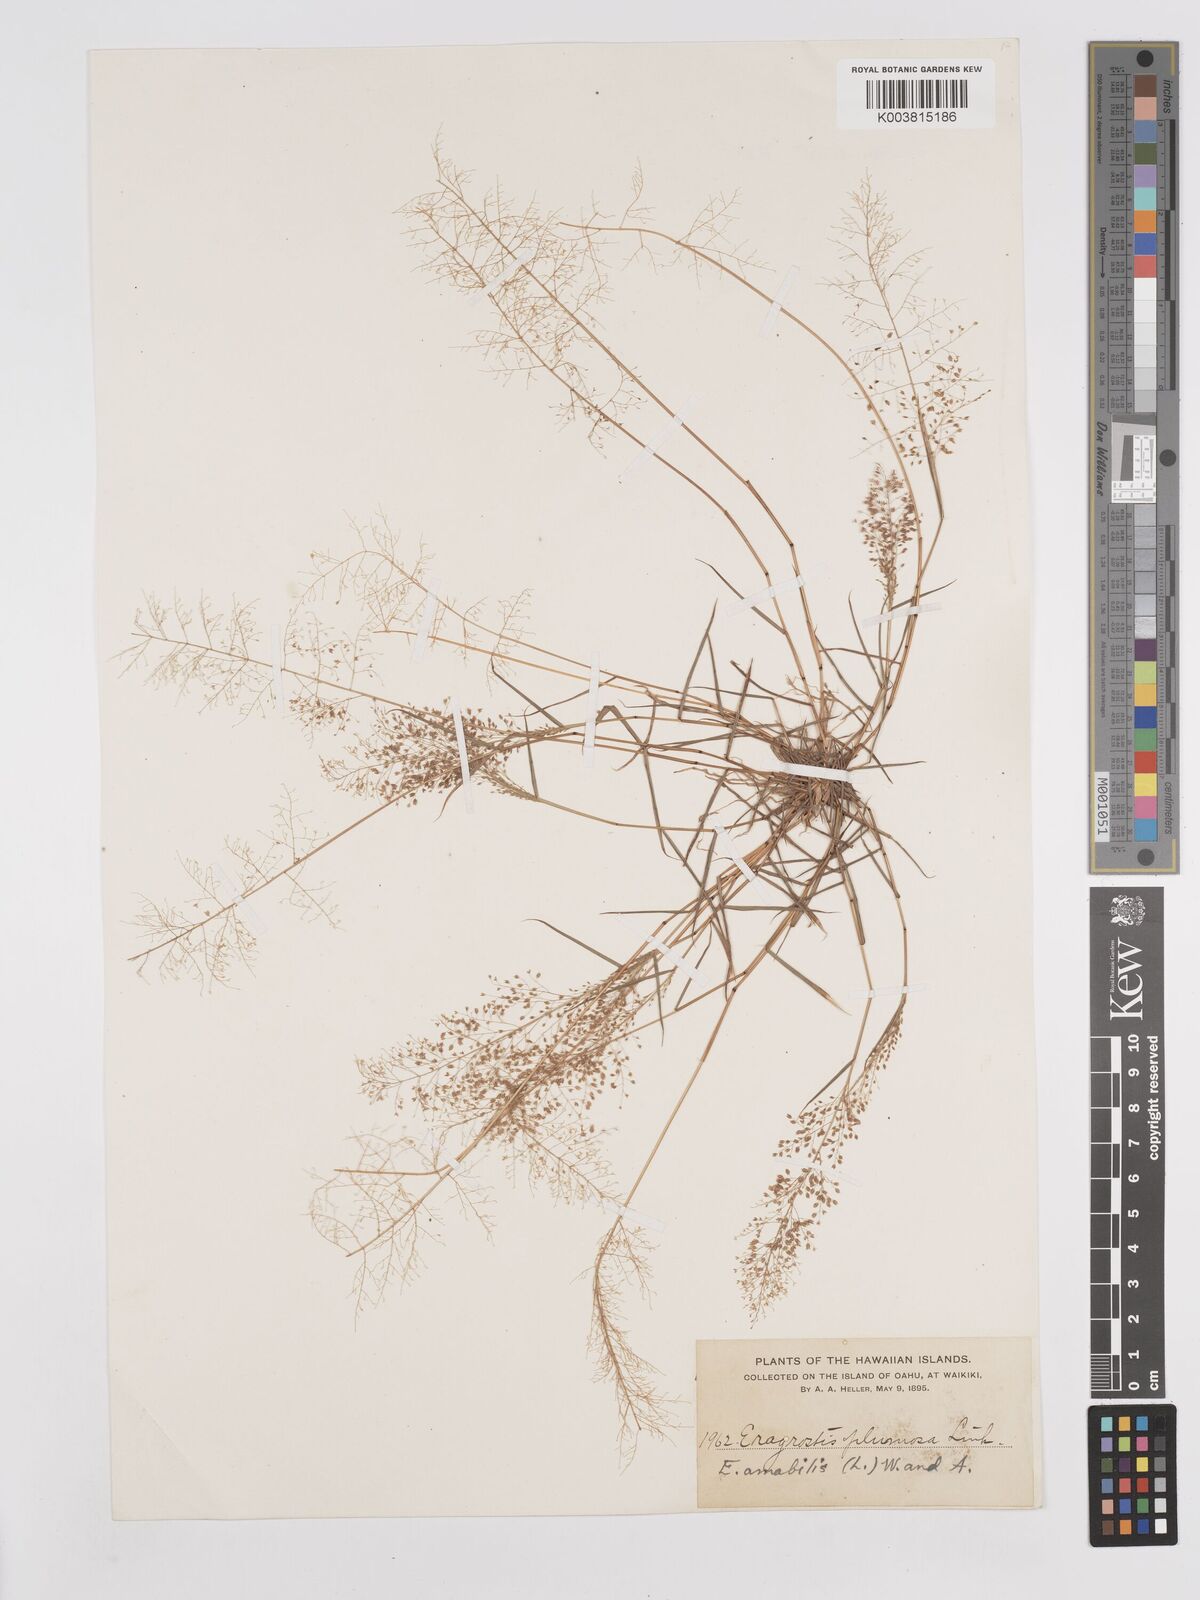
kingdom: Plantae
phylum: Tracheophyta
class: Liliopsida
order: Poales
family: Poaceae
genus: Eragrostis
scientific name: Eragrostis tenella
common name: Japanese lovegrass
